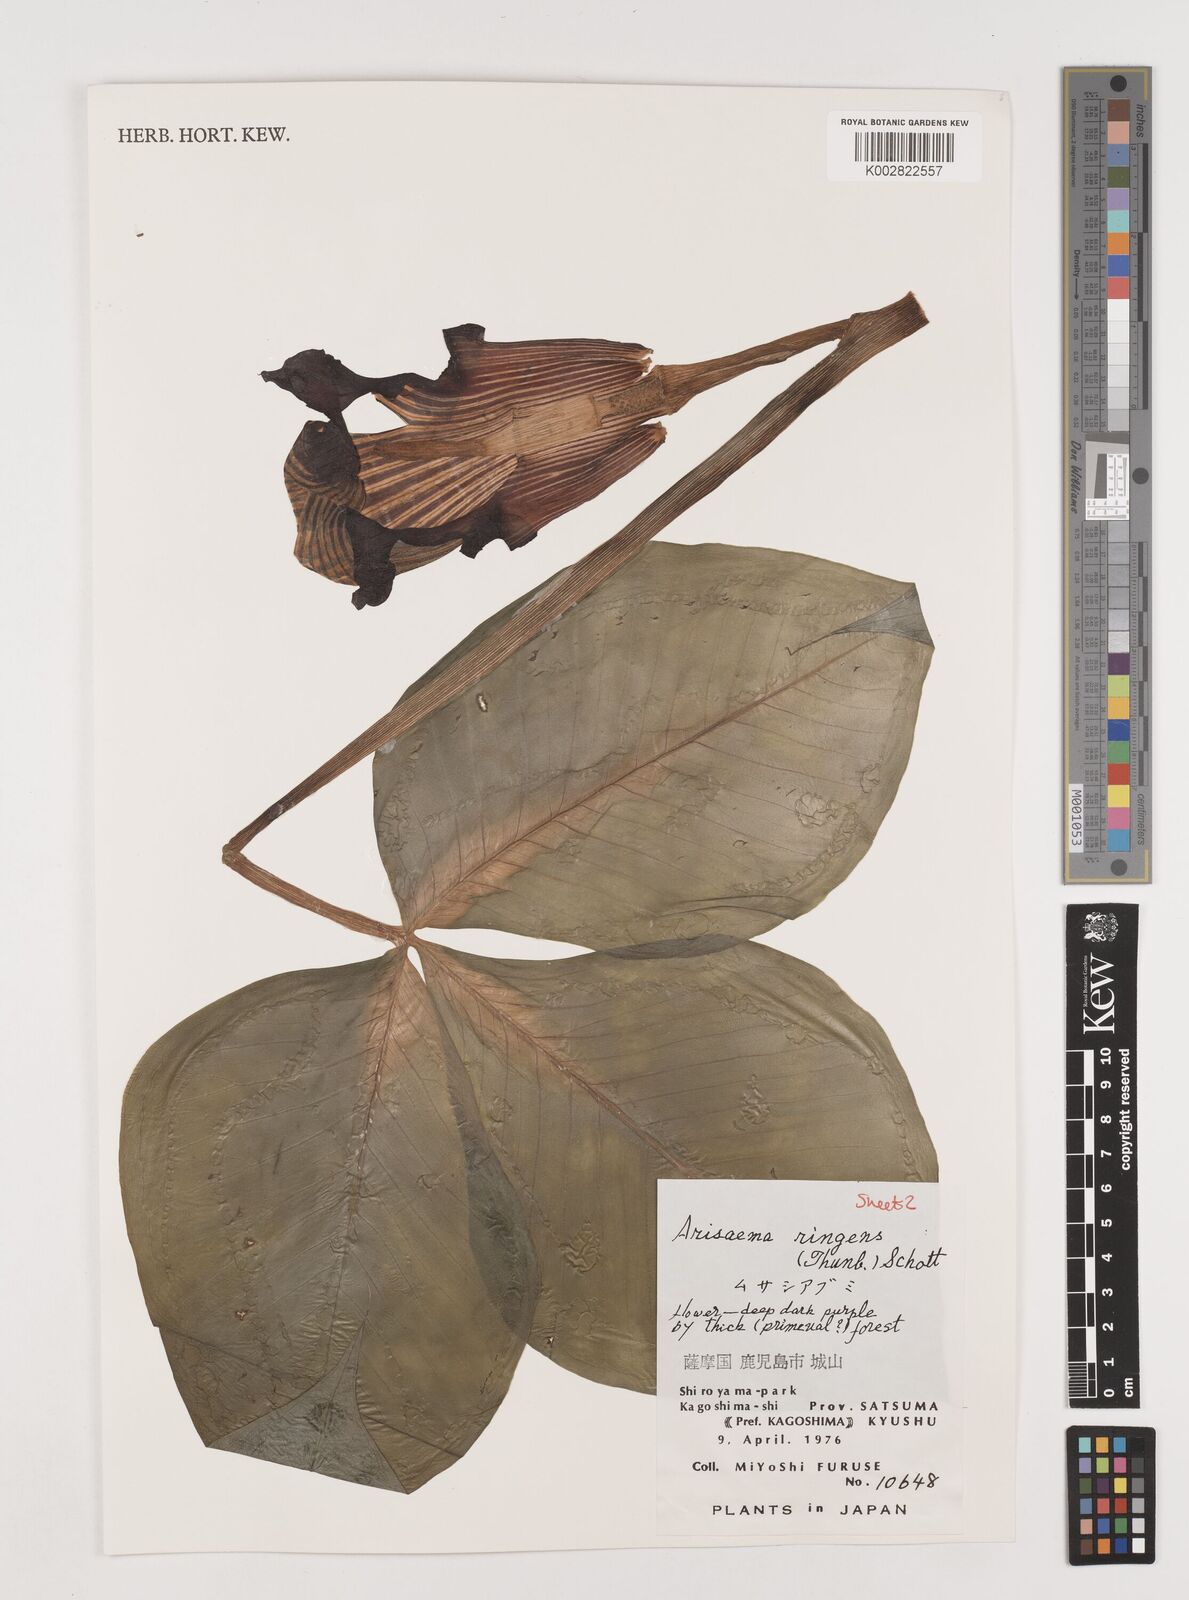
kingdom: Plantae
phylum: Tracheophyta
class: Liliopsida
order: Alismatales
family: Araceae
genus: Arisaema
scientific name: Arisaema ringens
